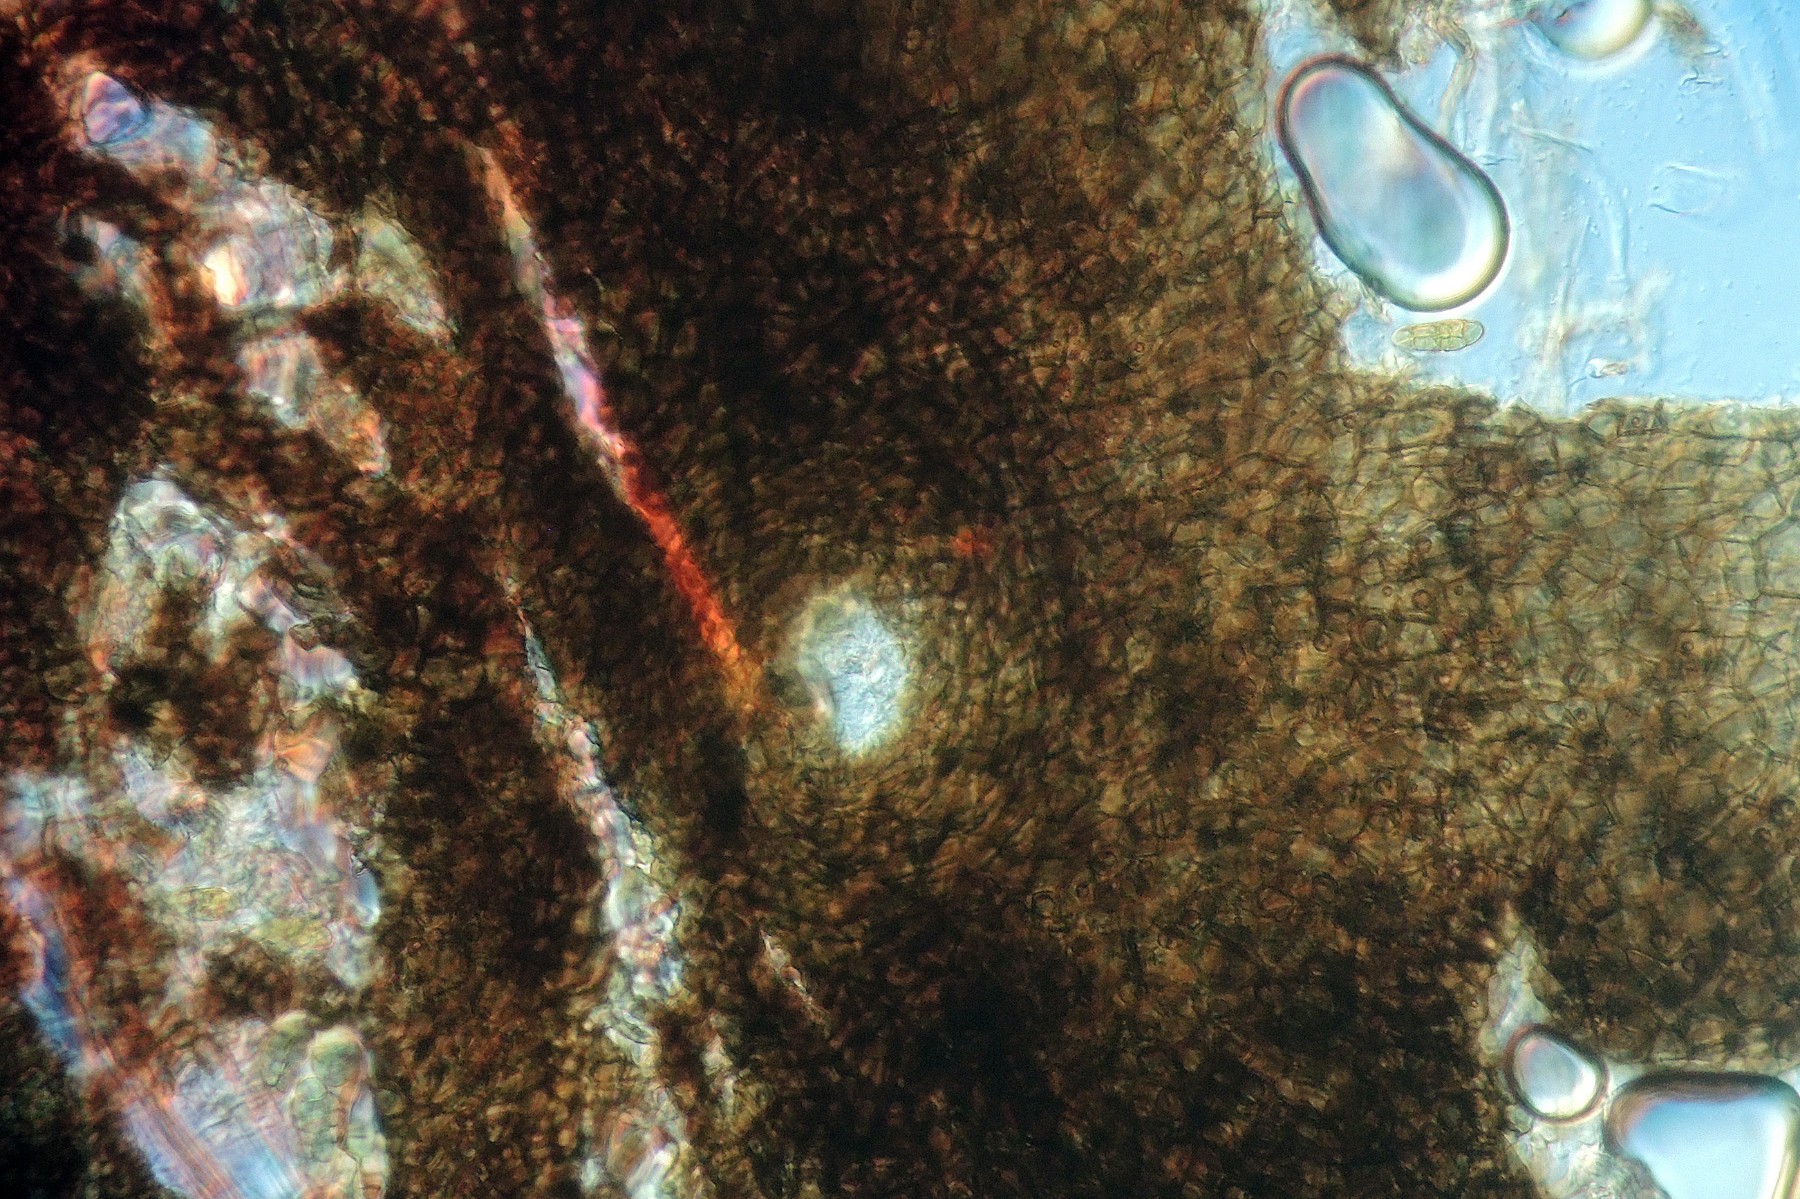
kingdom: Fungi
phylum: Ascomycota
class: Dothideomycetes
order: Pleosporales
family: Pleosporaceae
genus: Alternaria
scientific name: Alternaria infectoria
